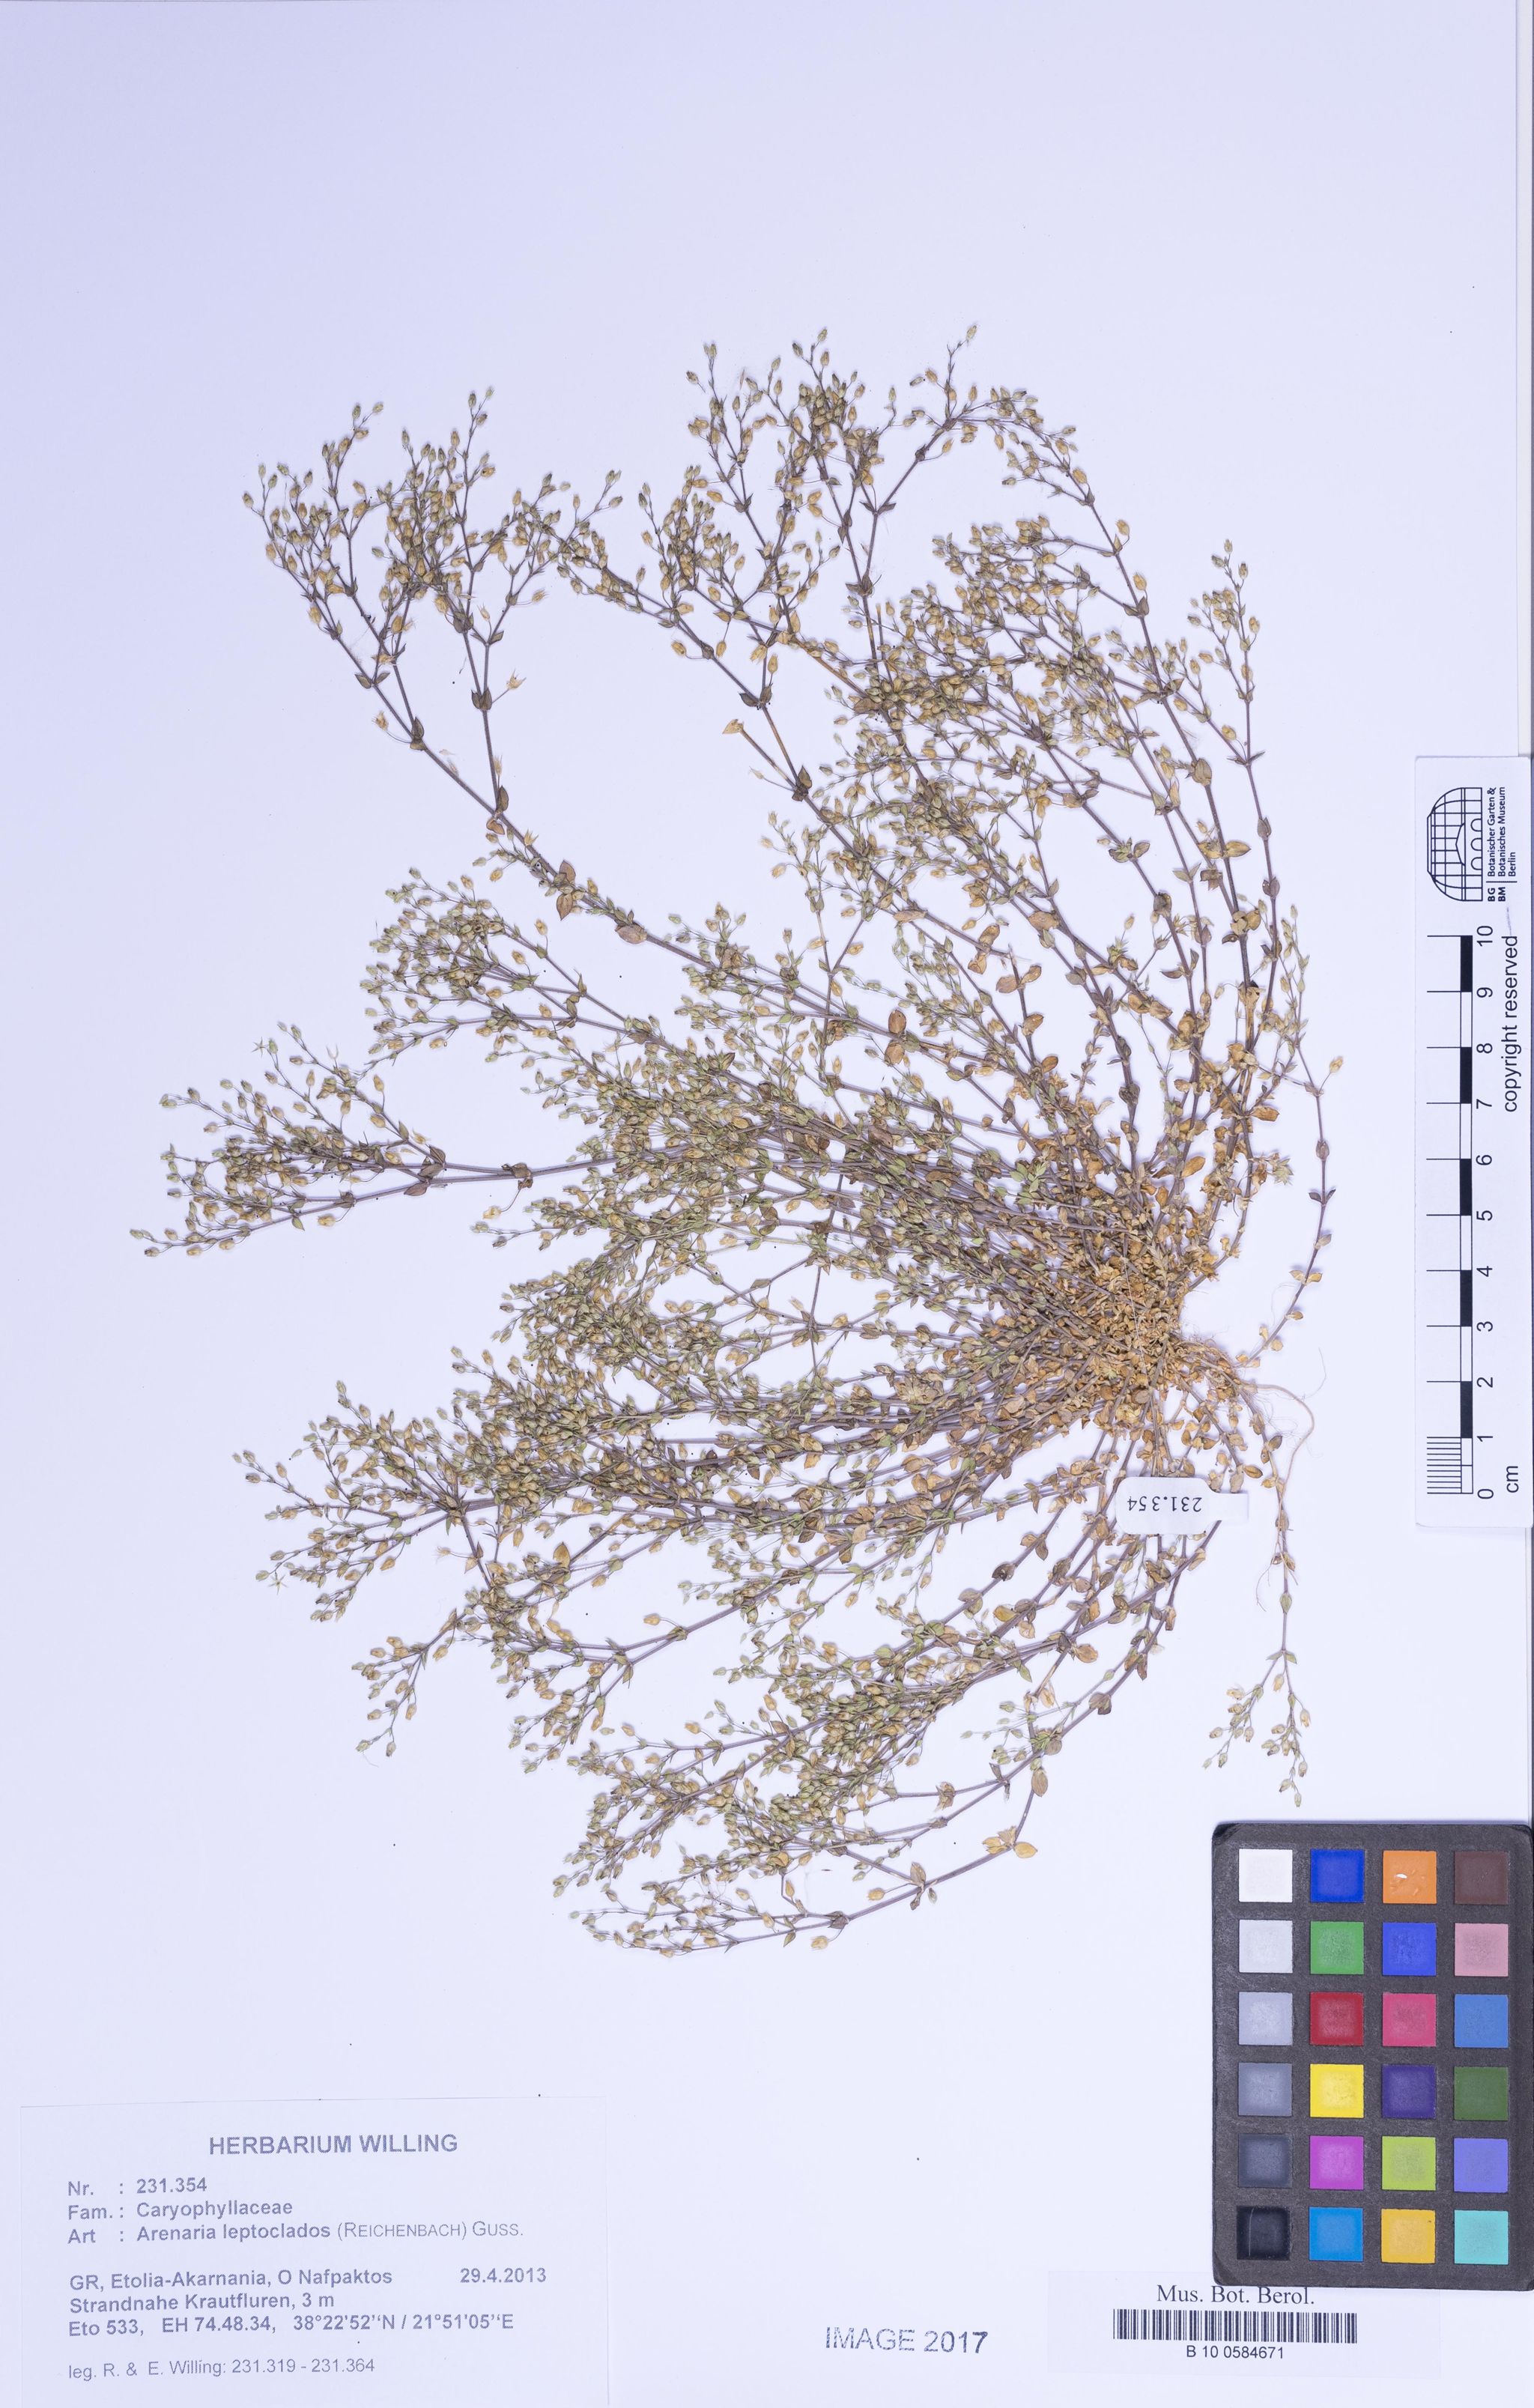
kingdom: Plantae
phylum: Tracheophyta
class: Magnoliopsida
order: Caryophyllales
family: Caryophyllaceae
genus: Arenaria
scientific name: Arenaria leptoclados
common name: Thyme-leaved sandwort
